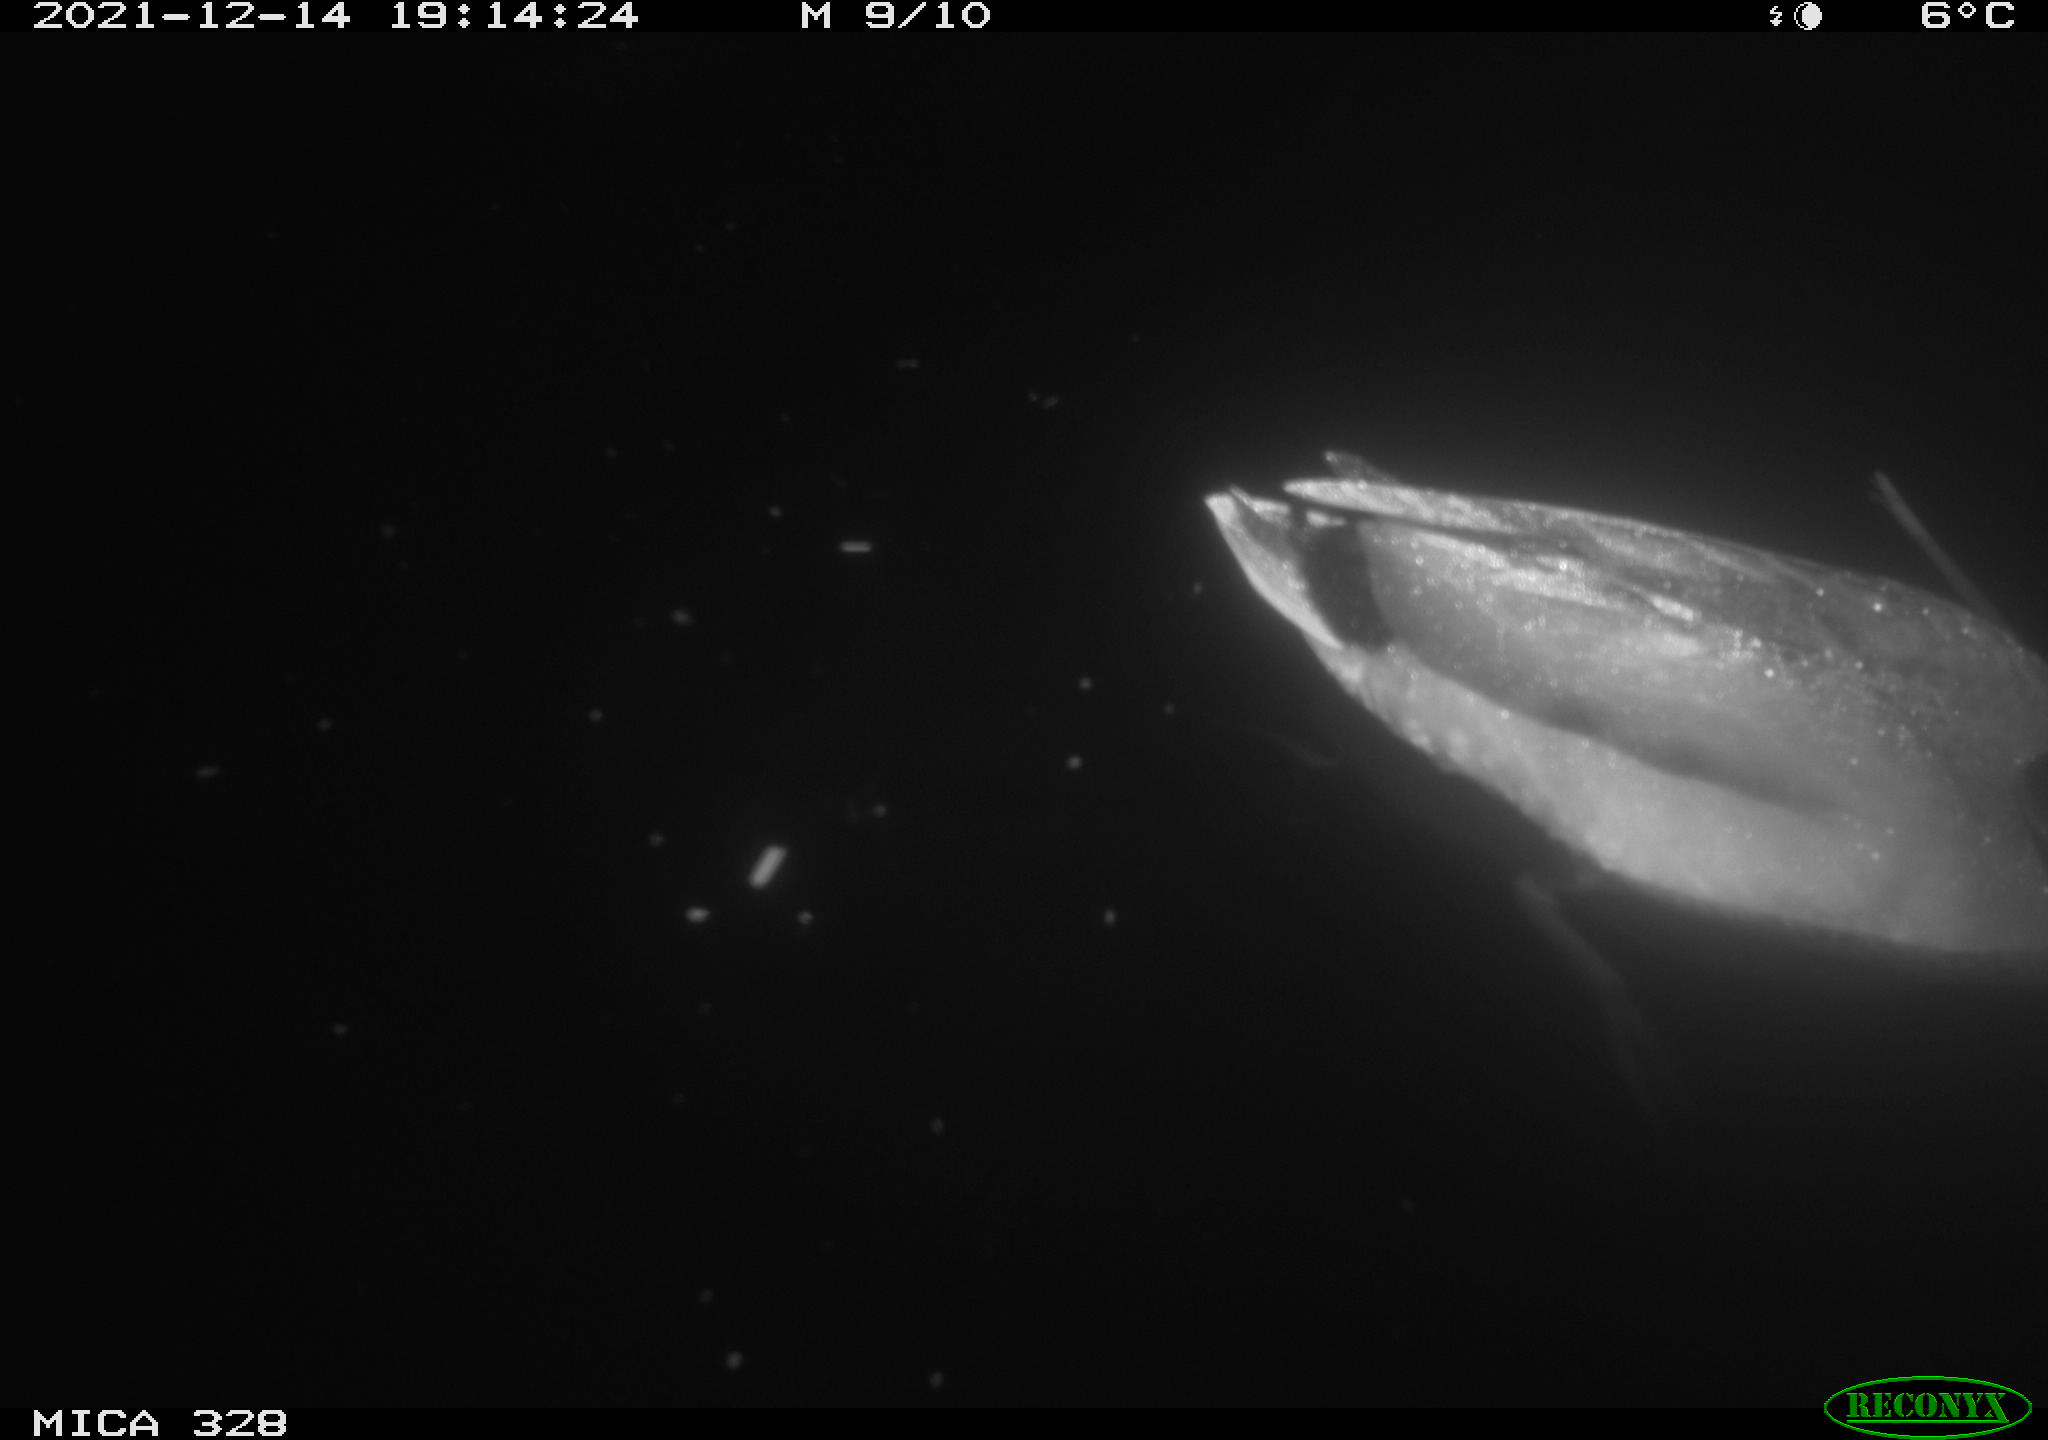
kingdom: Animalia
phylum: Chordata
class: Aves
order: Anseriformes
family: Anatidae
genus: Anas
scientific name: Anas platyrhynchos
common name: Mallard
